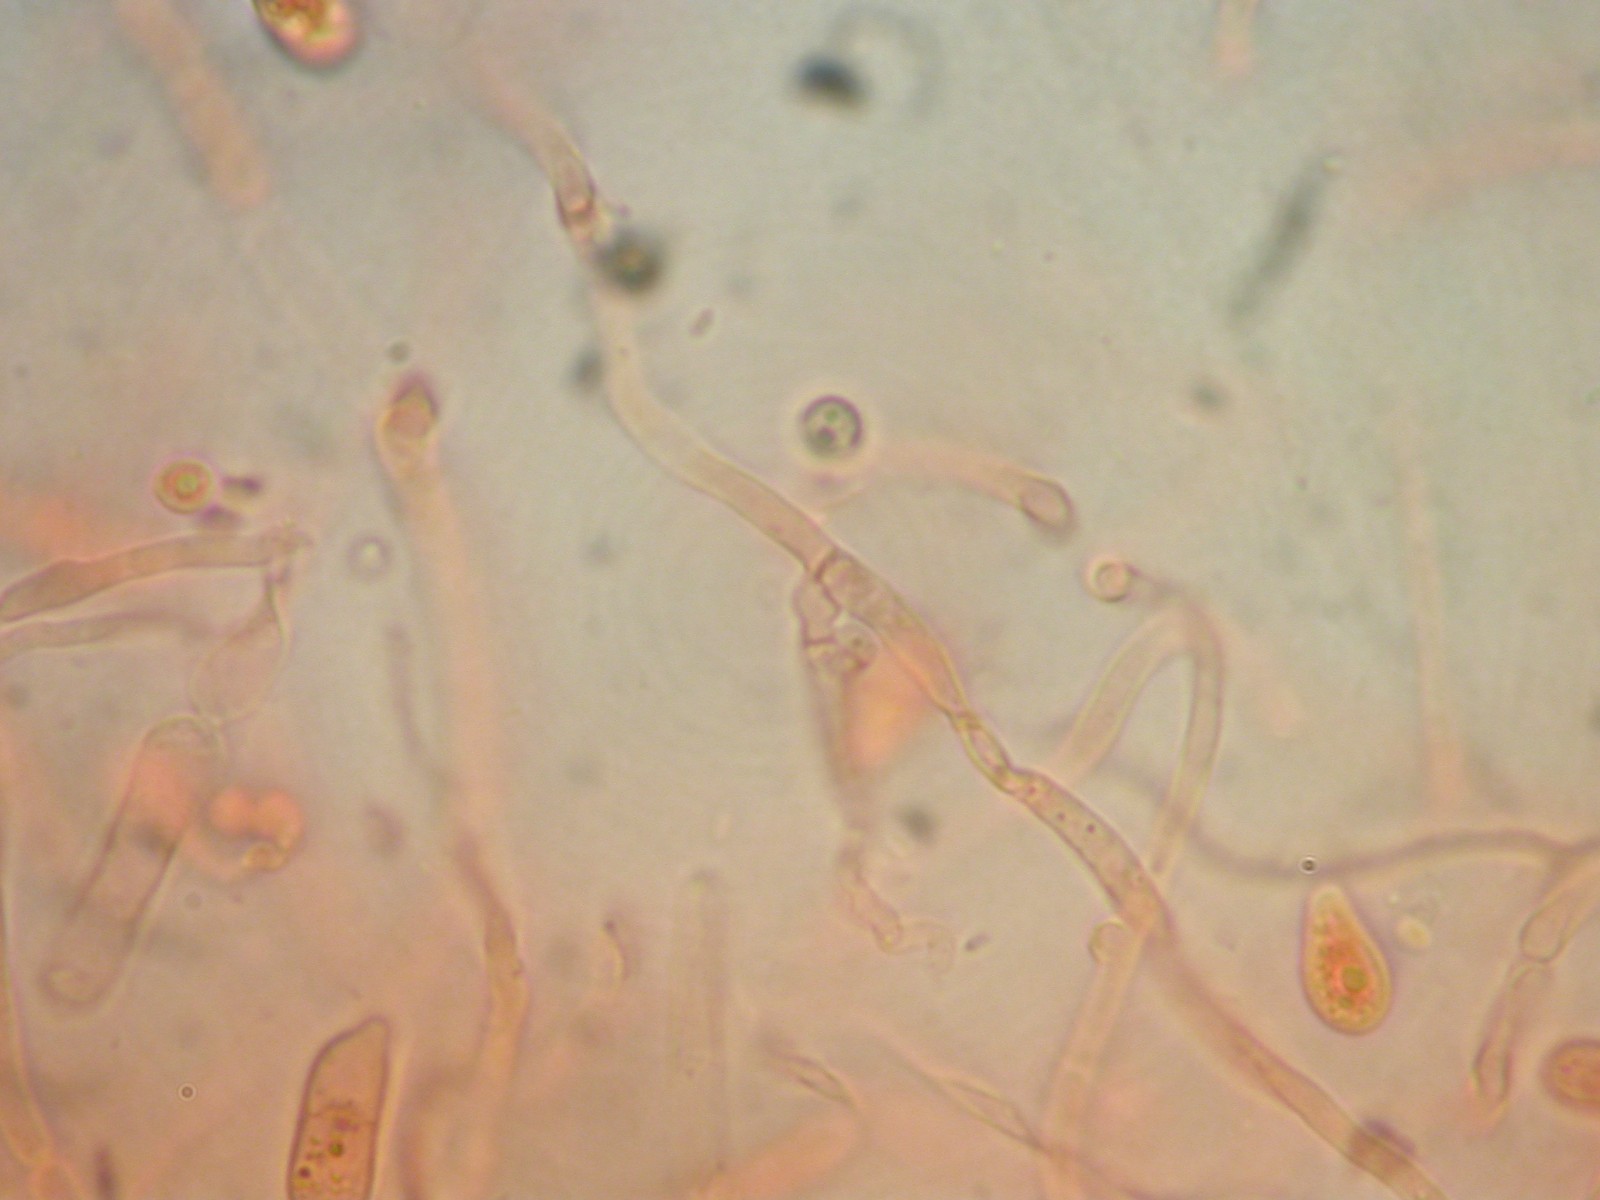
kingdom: Fungi
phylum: Basidiomycota
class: Dacrymycetes
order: Dacrymycetales
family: Dacrymycetaceae
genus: Dacrymyces
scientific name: Dacrymyces
